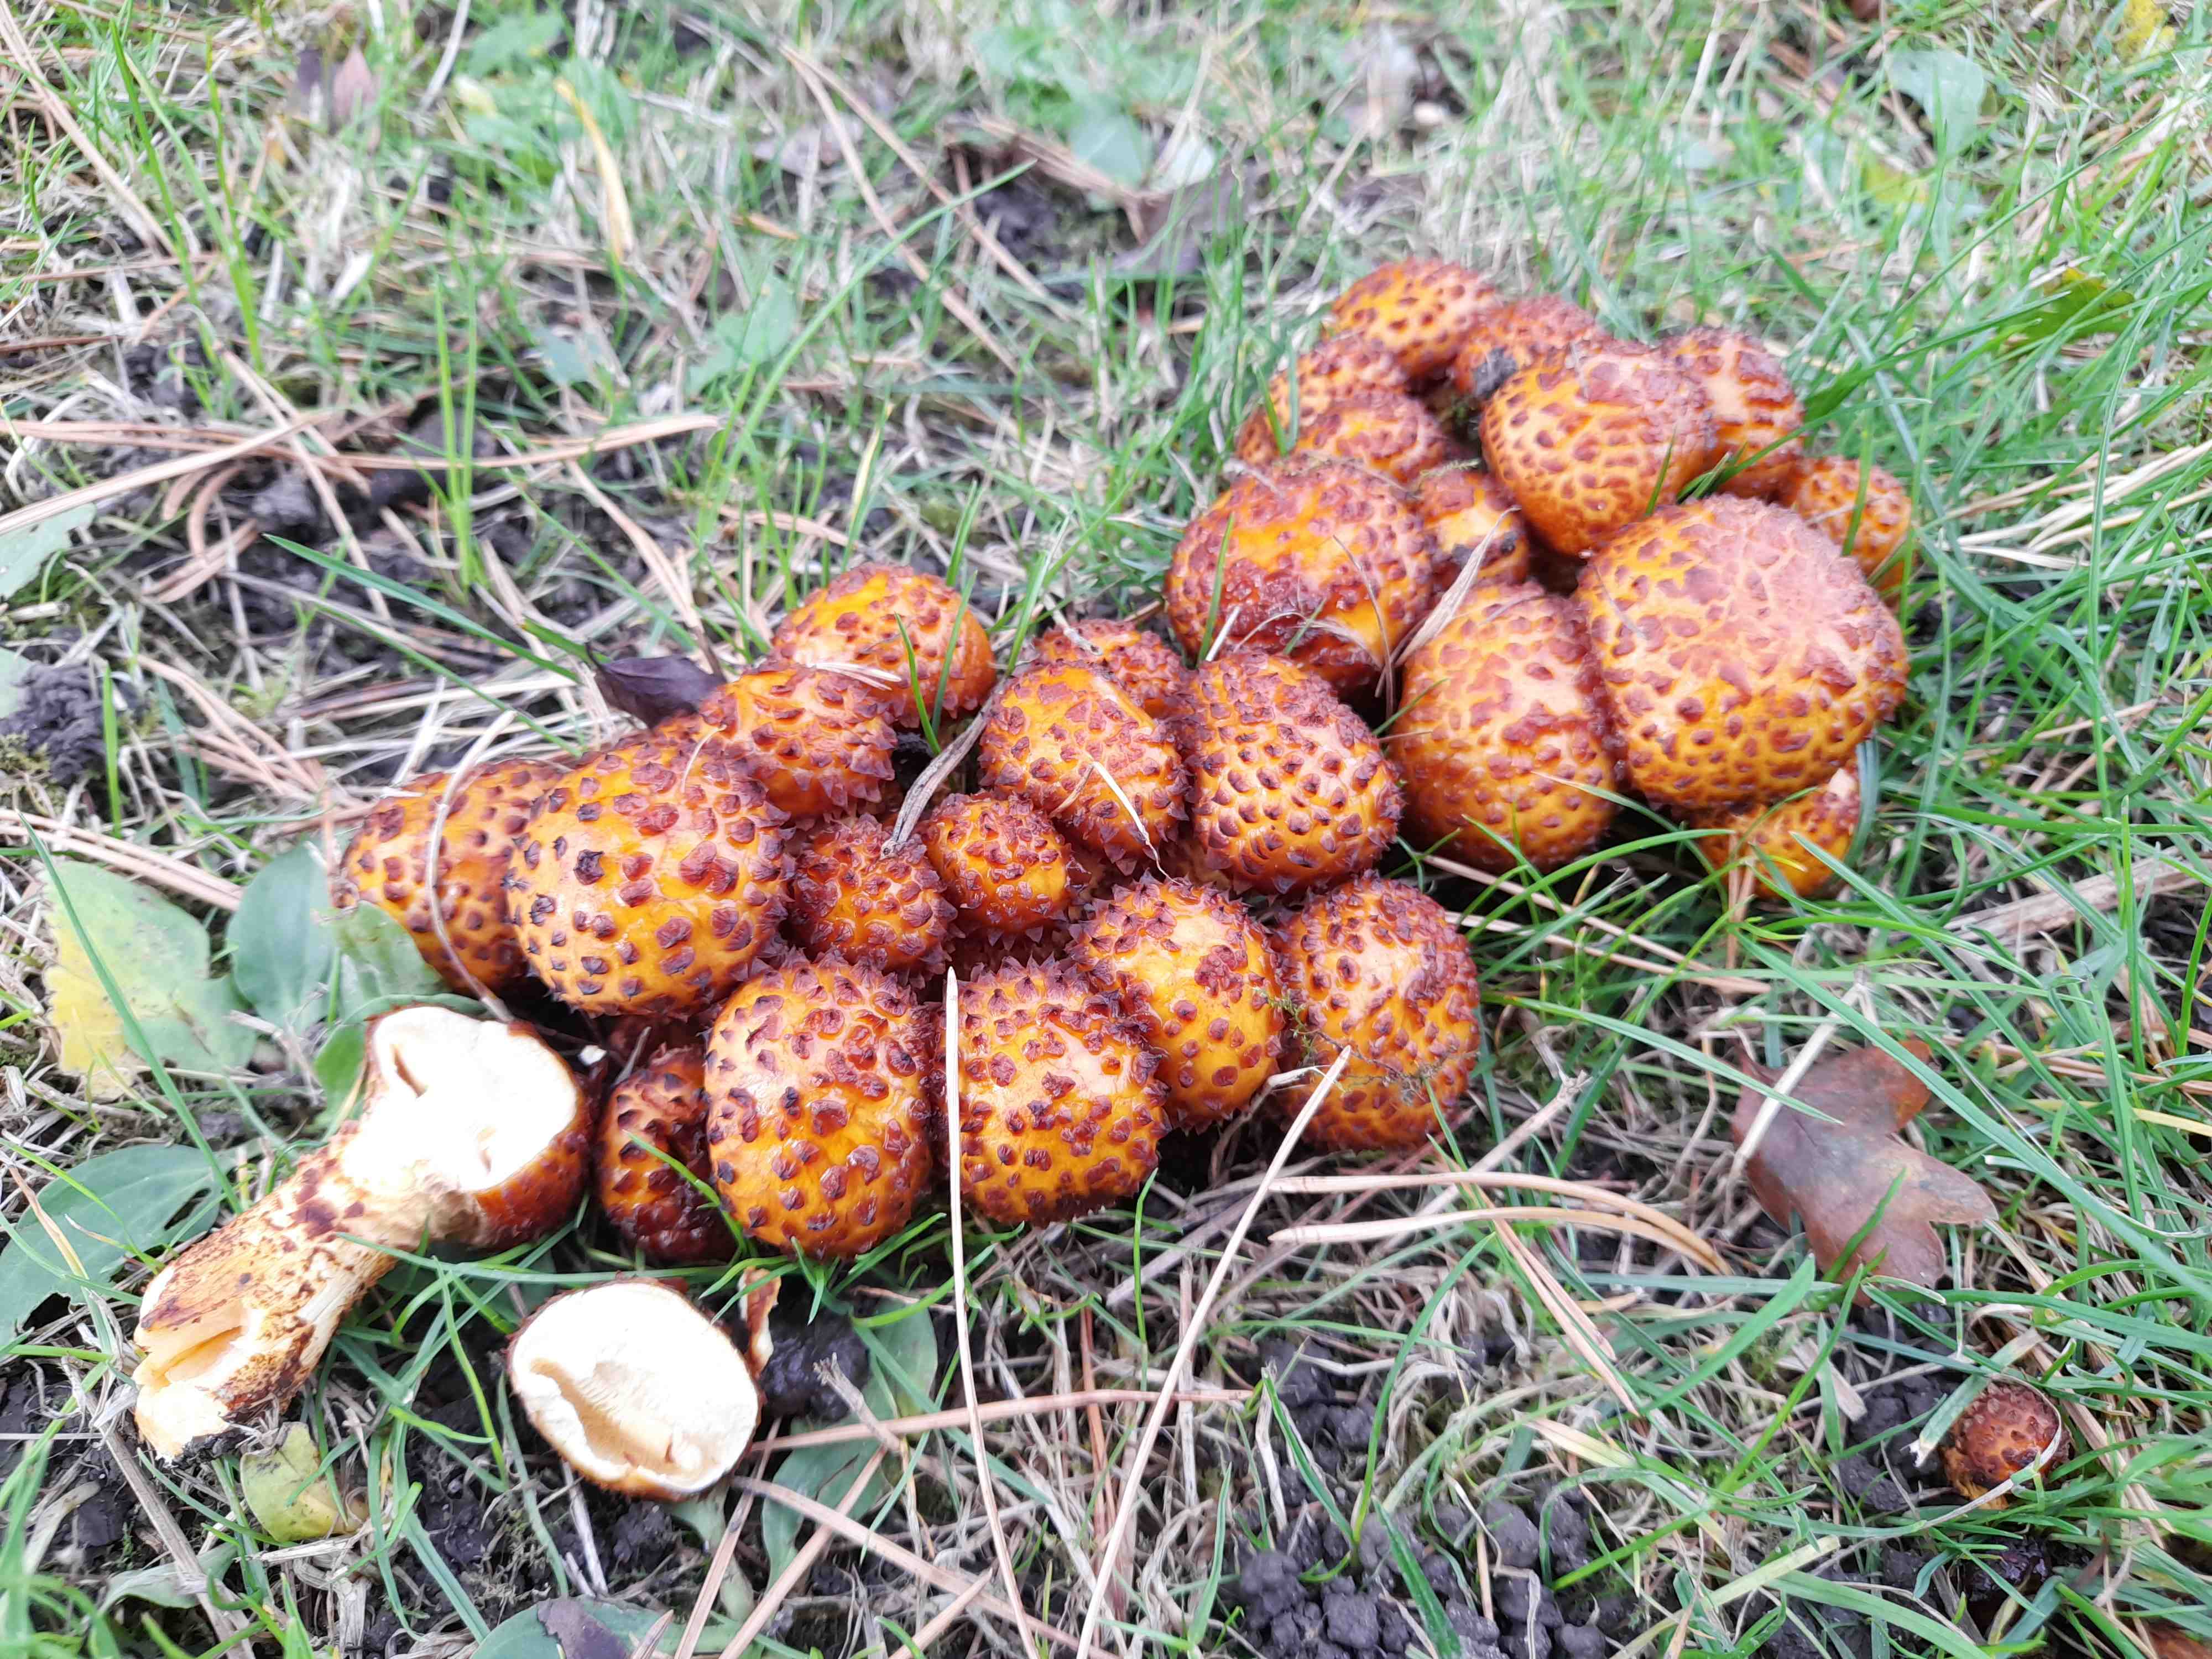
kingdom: Fungi
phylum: Basidiomycota
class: Agaricomycetes
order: Agaricales
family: Strophariaceae
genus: Pholiota
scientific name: Pholiota jahnii
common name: slimet skælhat
